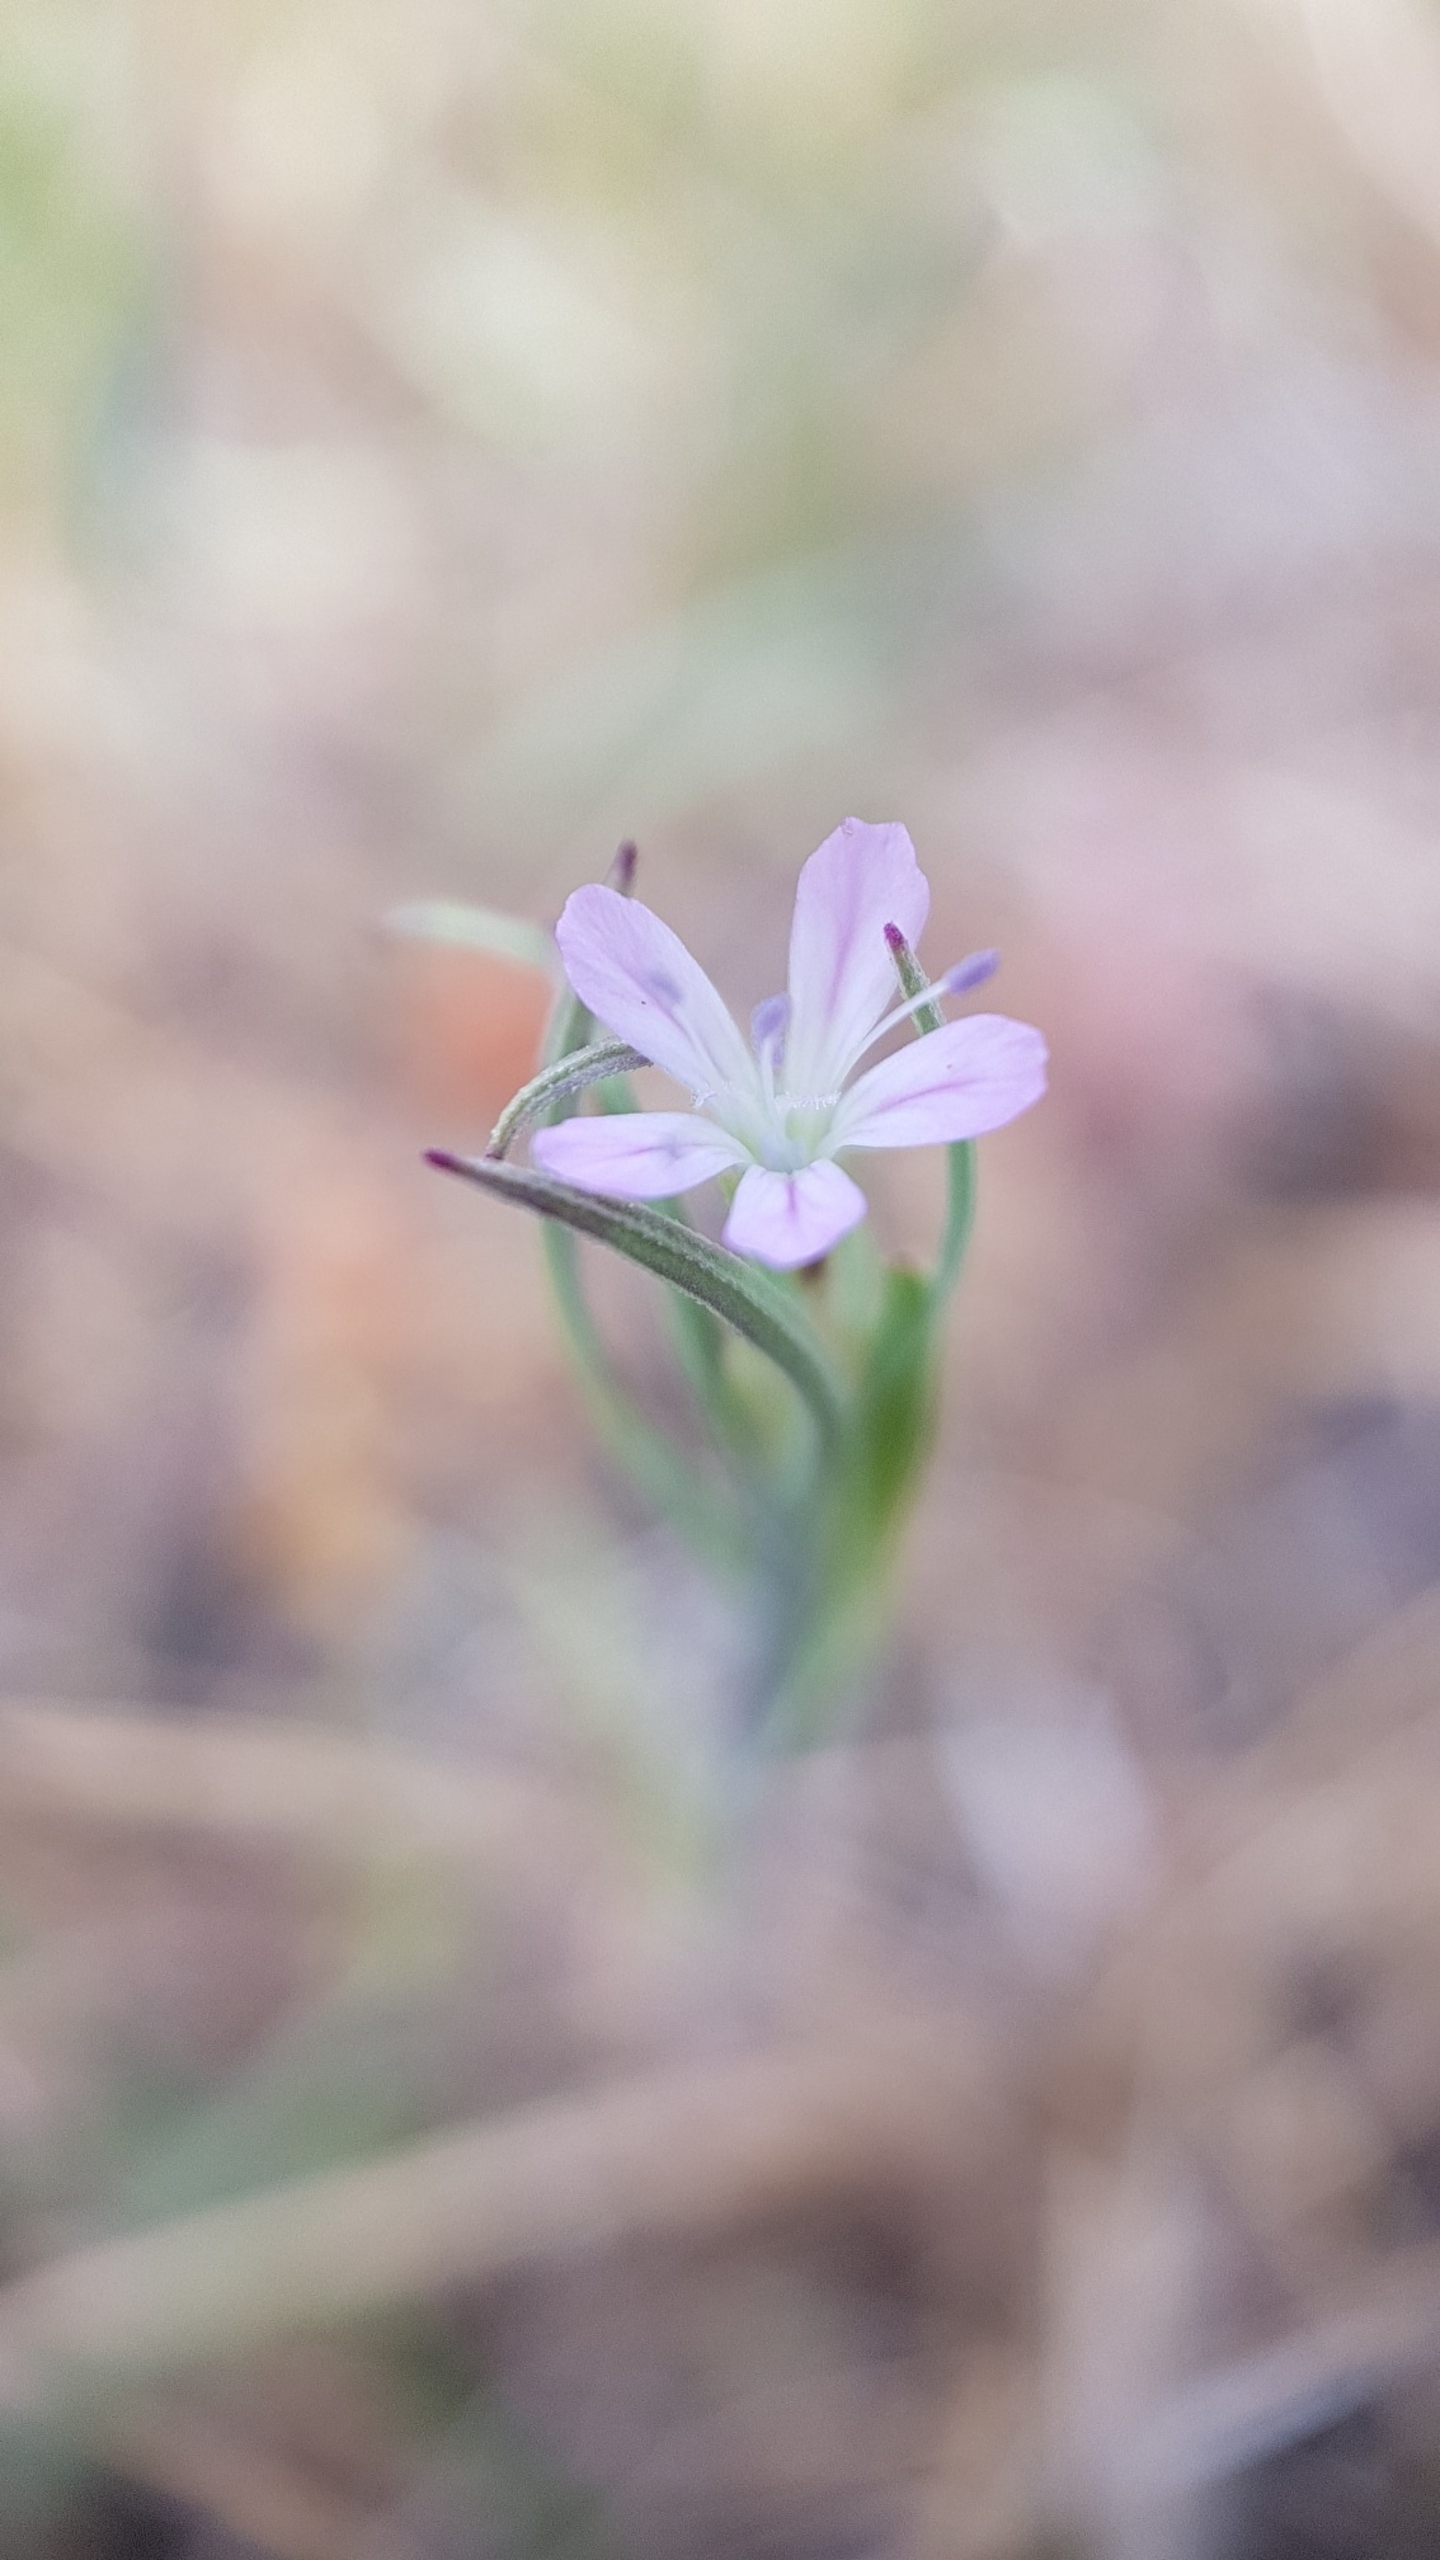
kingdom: Plantae
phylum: Tracheophyta
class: Magnoliopsida
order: Caryophyllales
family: Caryophyllaceae
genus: Petrorhagia
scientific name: Petrorhagia prolifera
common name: Knopnellike
